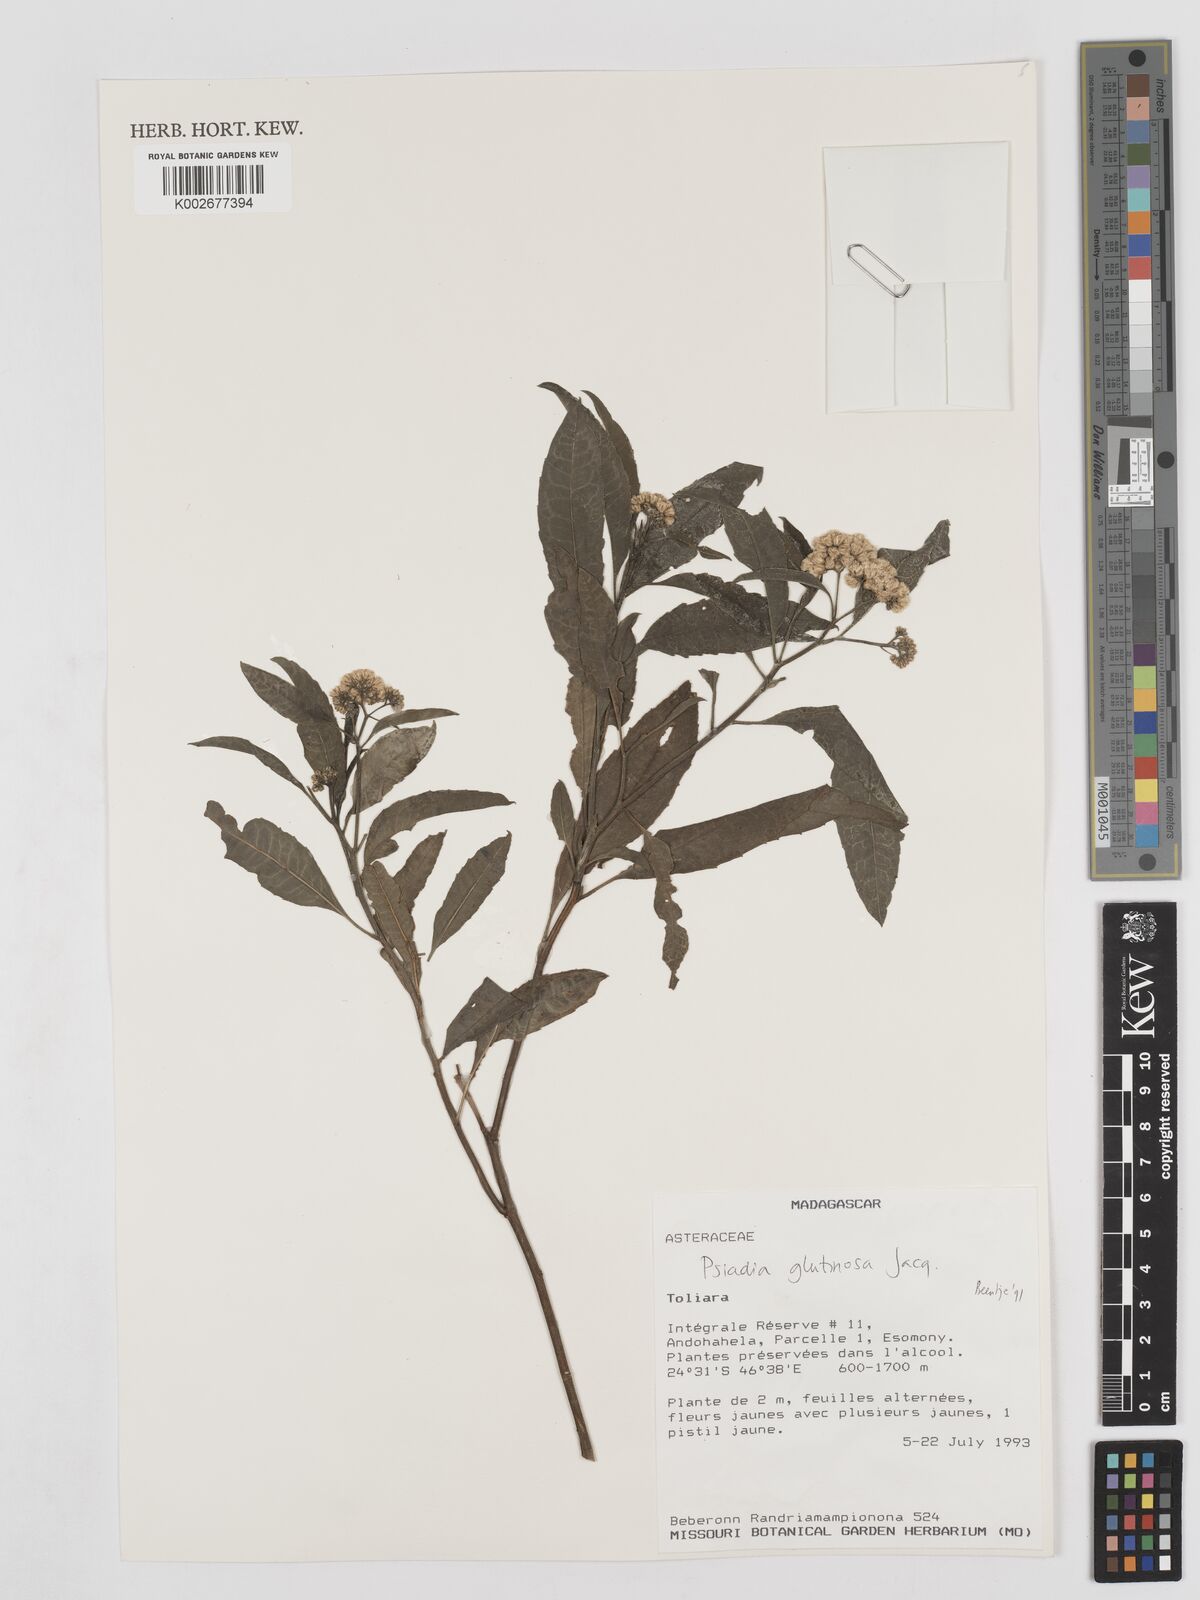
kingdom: Plantae
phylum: Tracheophyta
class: Magnoliopsida
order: Asterales
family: Asteraceae
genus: Psiadia
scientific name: Psiadia glutinosa
